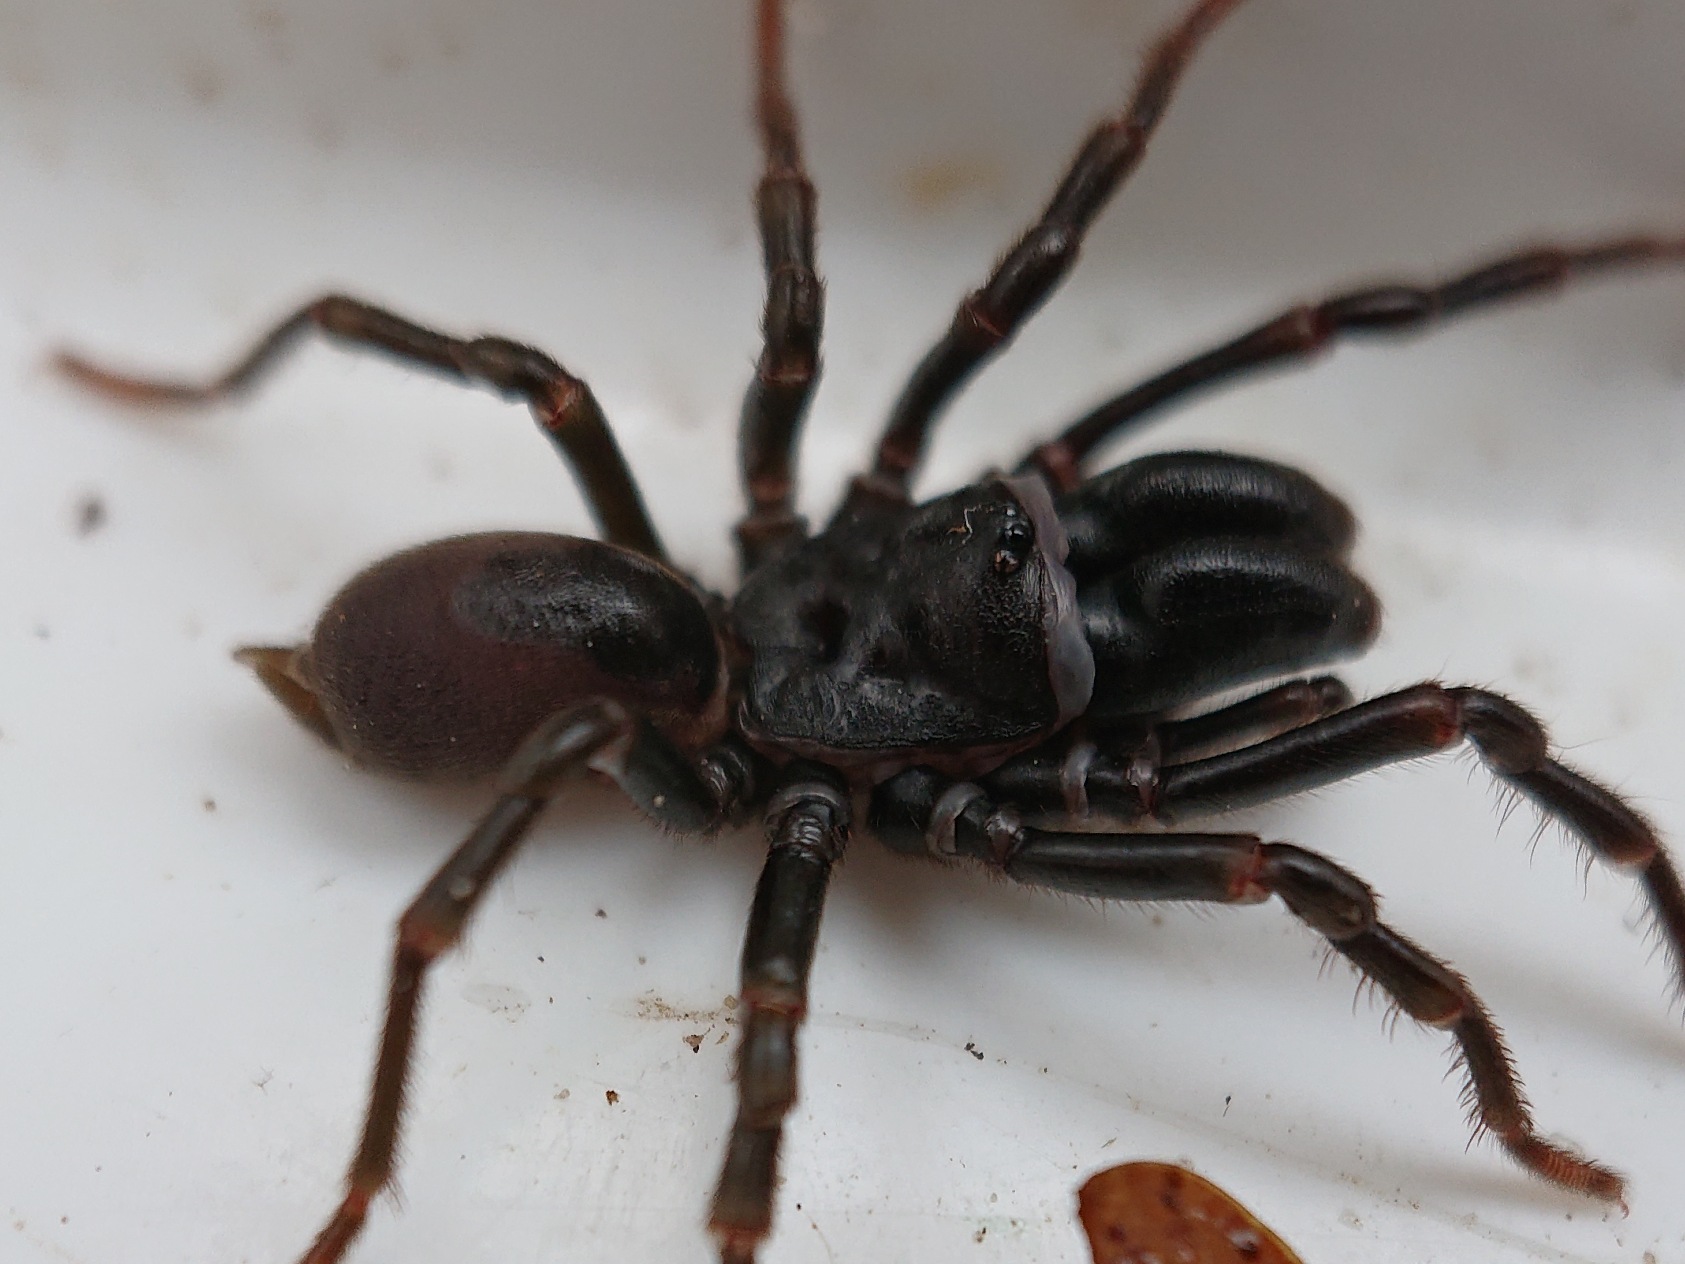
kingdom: Animalia
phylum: Arthropoda
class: Arachnida
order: Araneae
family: Atypidae
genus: Atypus
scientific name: Atypus affinis
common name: Nordlig fugleedderkop
